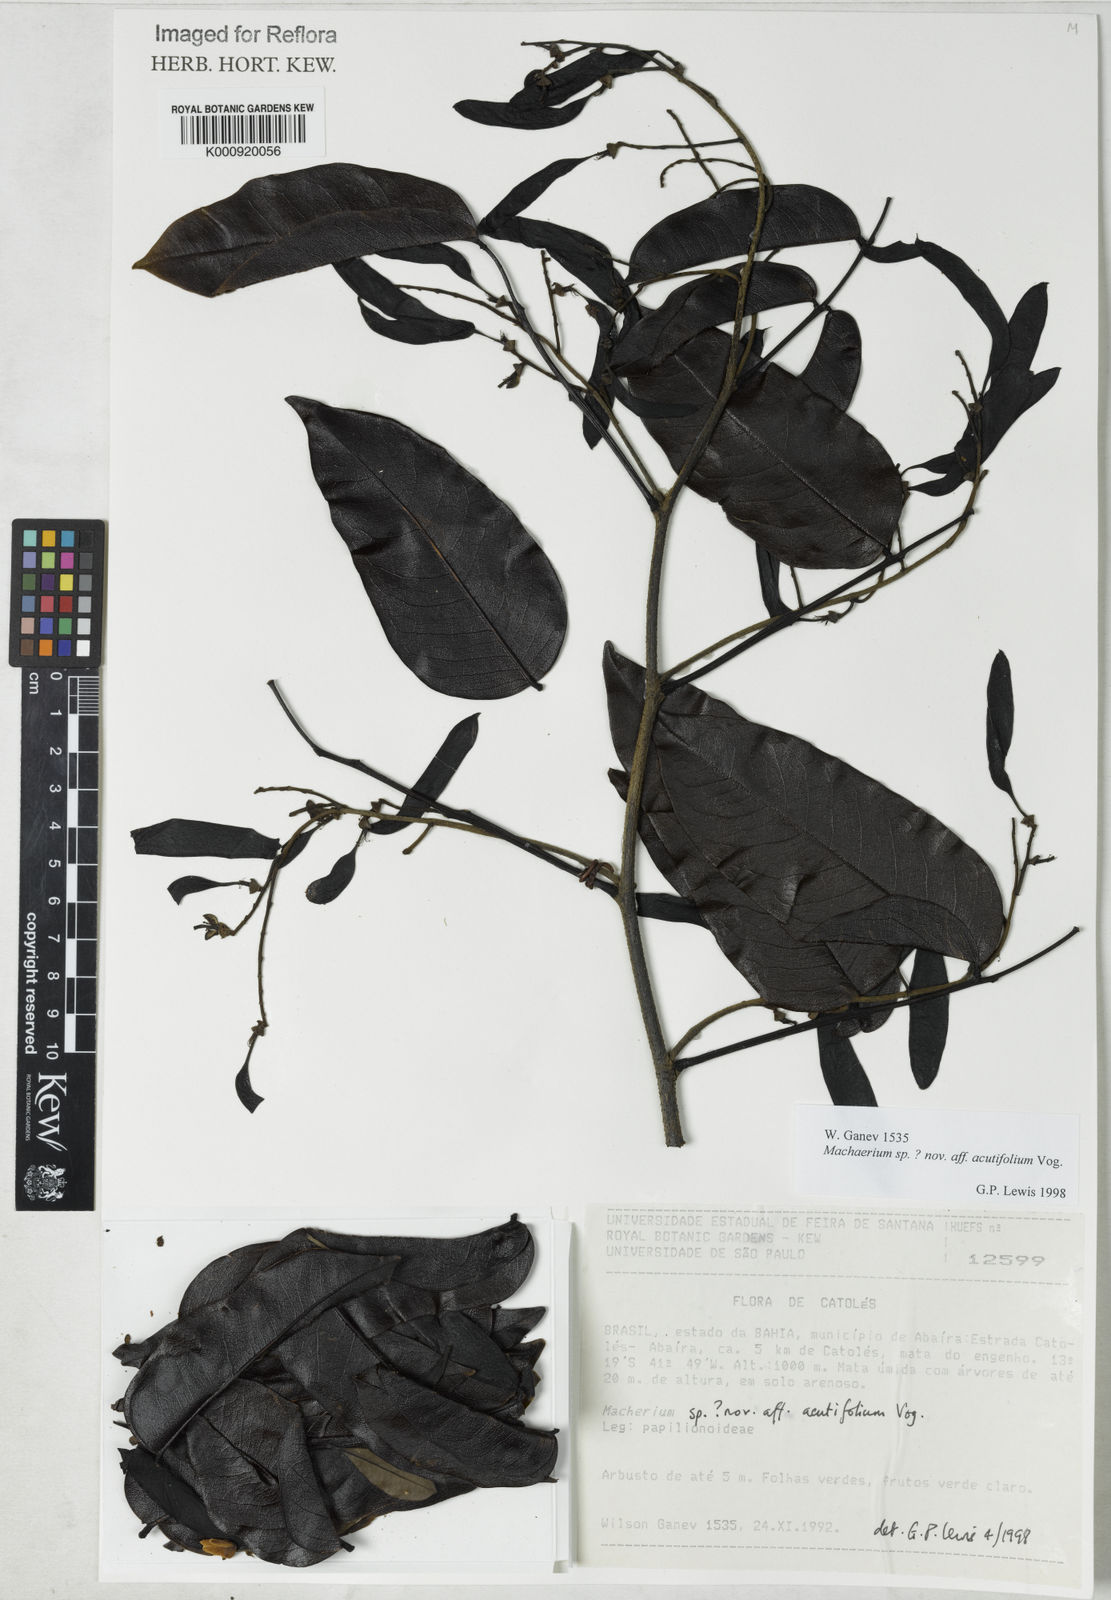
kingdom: Plantae
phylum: Tracheophyta
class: Magnoliopsida
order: Fabales
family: Fabaceae
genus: Machaerium
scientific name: Machaerium
